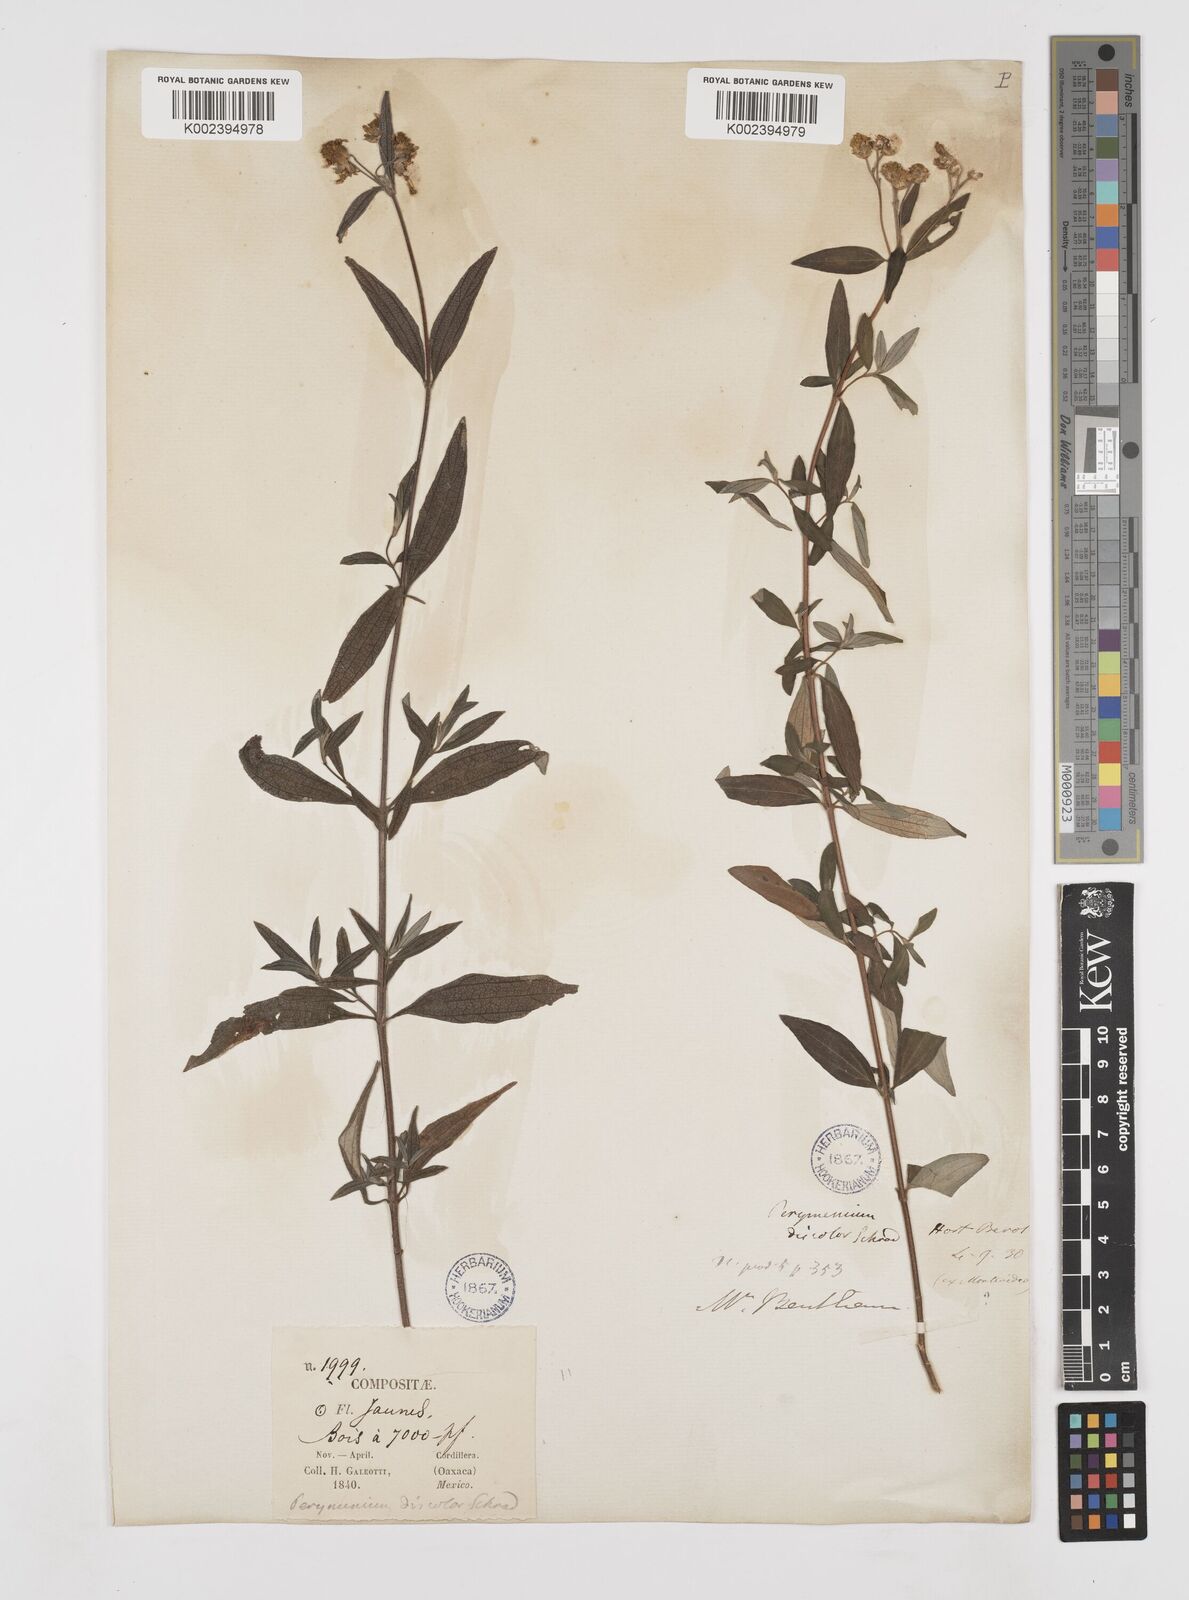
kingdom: Plantae
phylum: Tracheophyta
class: Magnoliopsida
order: Asterales
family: Asteraceae
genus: Perymenium
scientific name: Perymenium discolor
